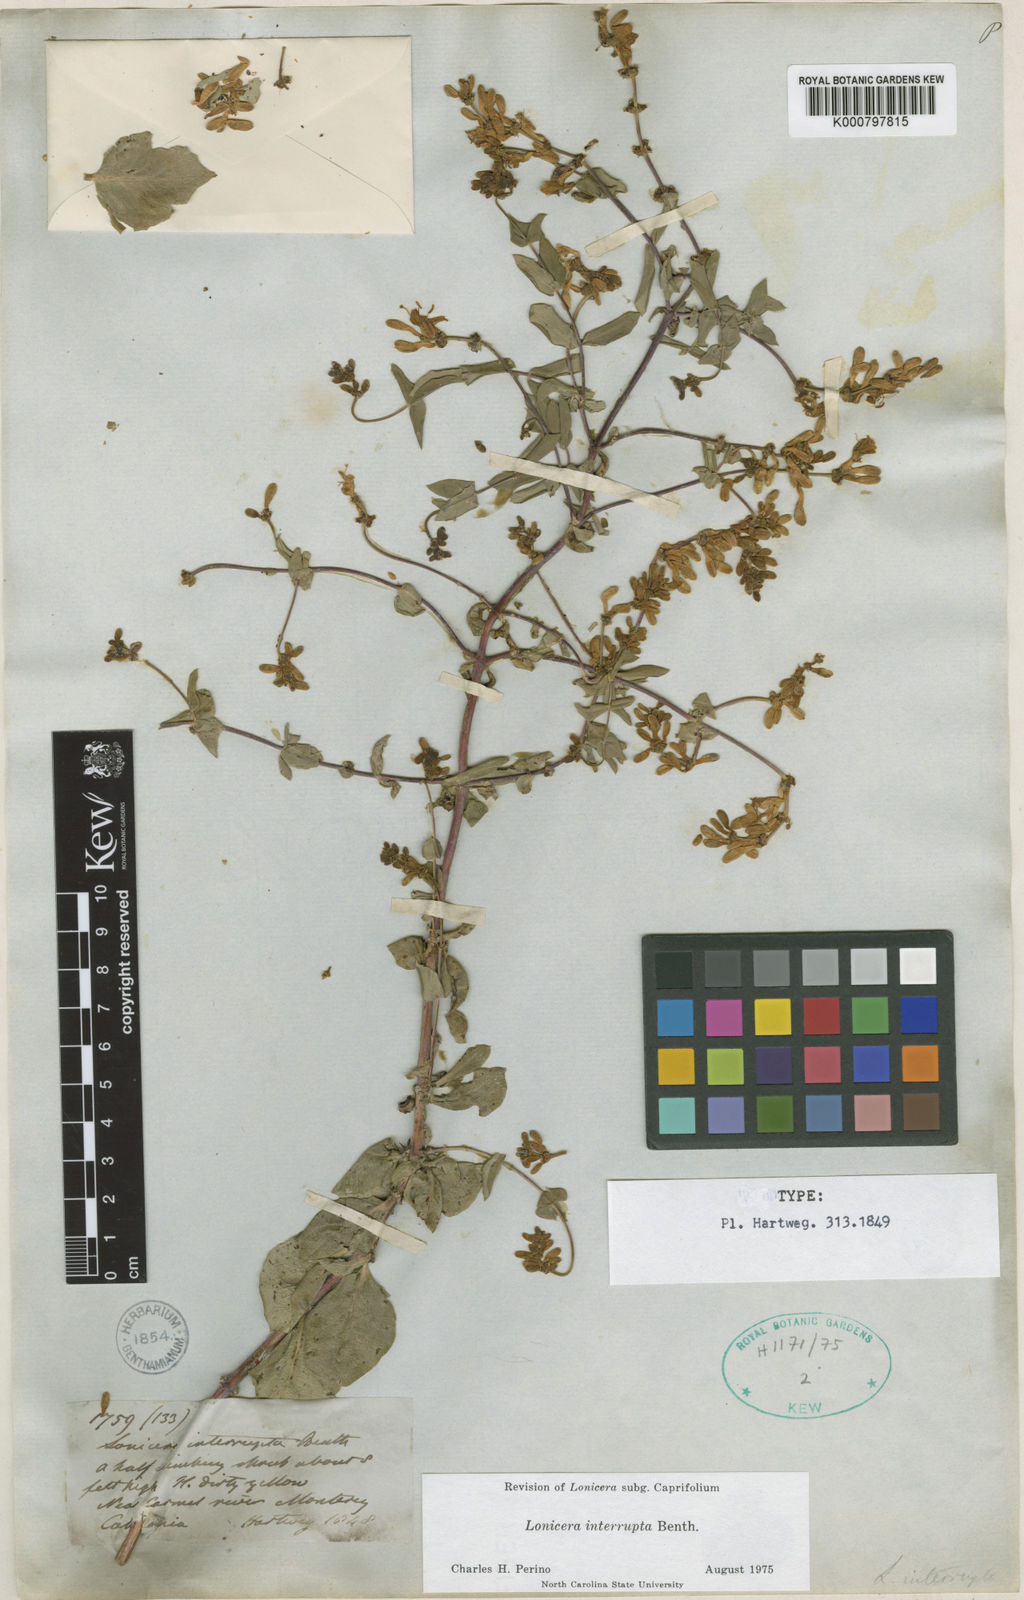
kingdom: Plantae
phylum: Tracheophyta
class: Magnoliopsida
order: Dipsacales
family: Caprifoliaceae
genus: Lonicera
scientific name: Lonicera interrupta
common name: Chaparral honeysuckle
